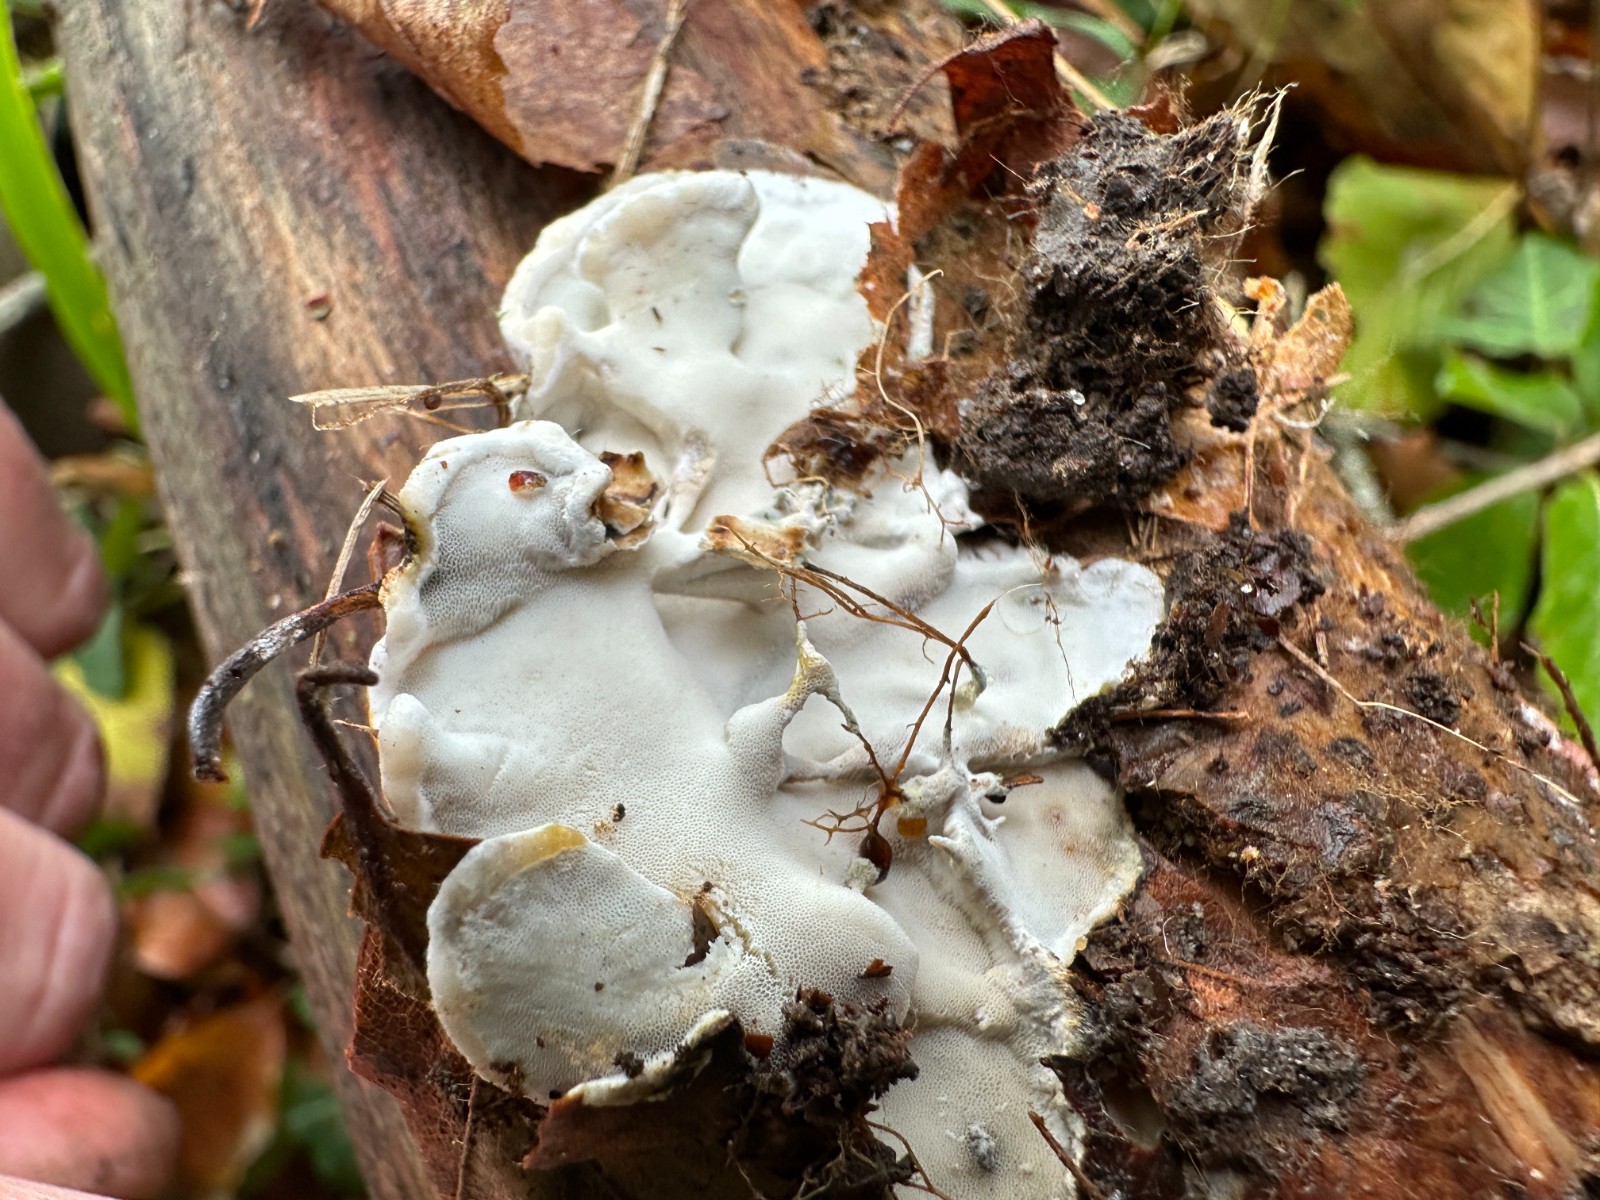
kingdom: Fungi
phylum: Basidiomycota
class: Agaricomycetes
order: Polyporales
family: Incrustoporiaceae
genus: Skeletocutis
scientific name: Skeletocutis nemoralis
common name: stor krystalporesvamp
